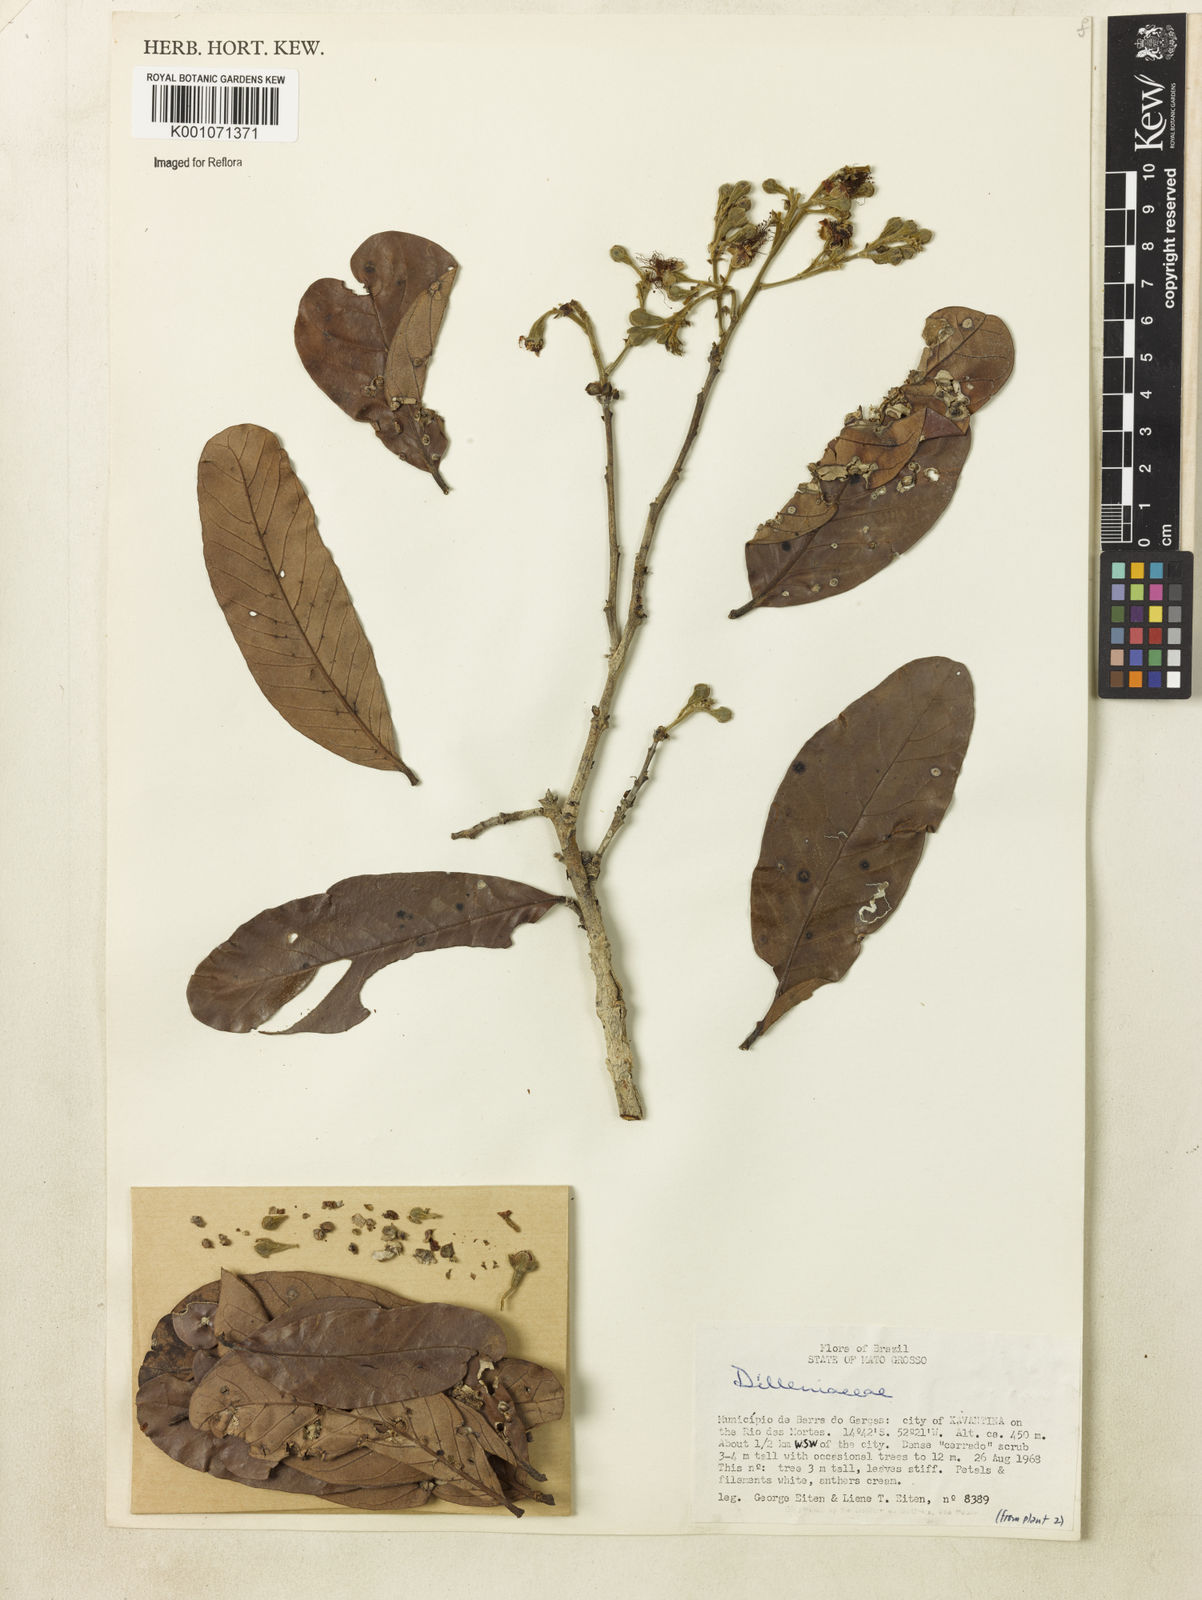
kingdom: Plantae
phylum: Tracheophyta
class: Magnoliopsida
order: Dilleniales
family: Dilleniaceae
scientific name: Dilleniaceae
